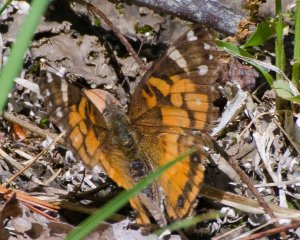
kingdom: Animalia
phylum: Arthropoda
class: Insecta
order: Lepidoptera
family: Nymphalidae
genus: Vanessa
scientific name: Vanessa virginiensis
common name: American Lady
